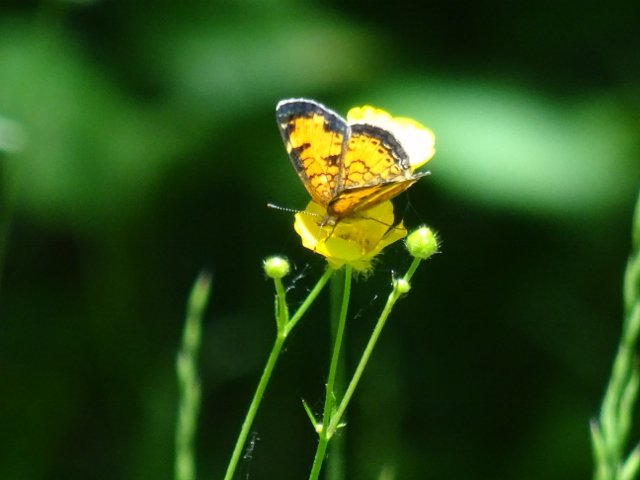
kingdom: Animalia
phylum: Arthropoda
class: Insecta
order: Lepidoptera
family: Nymphalidae
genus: Phyciodes
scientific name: Phyciodes tharos
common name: Northern Crescent
